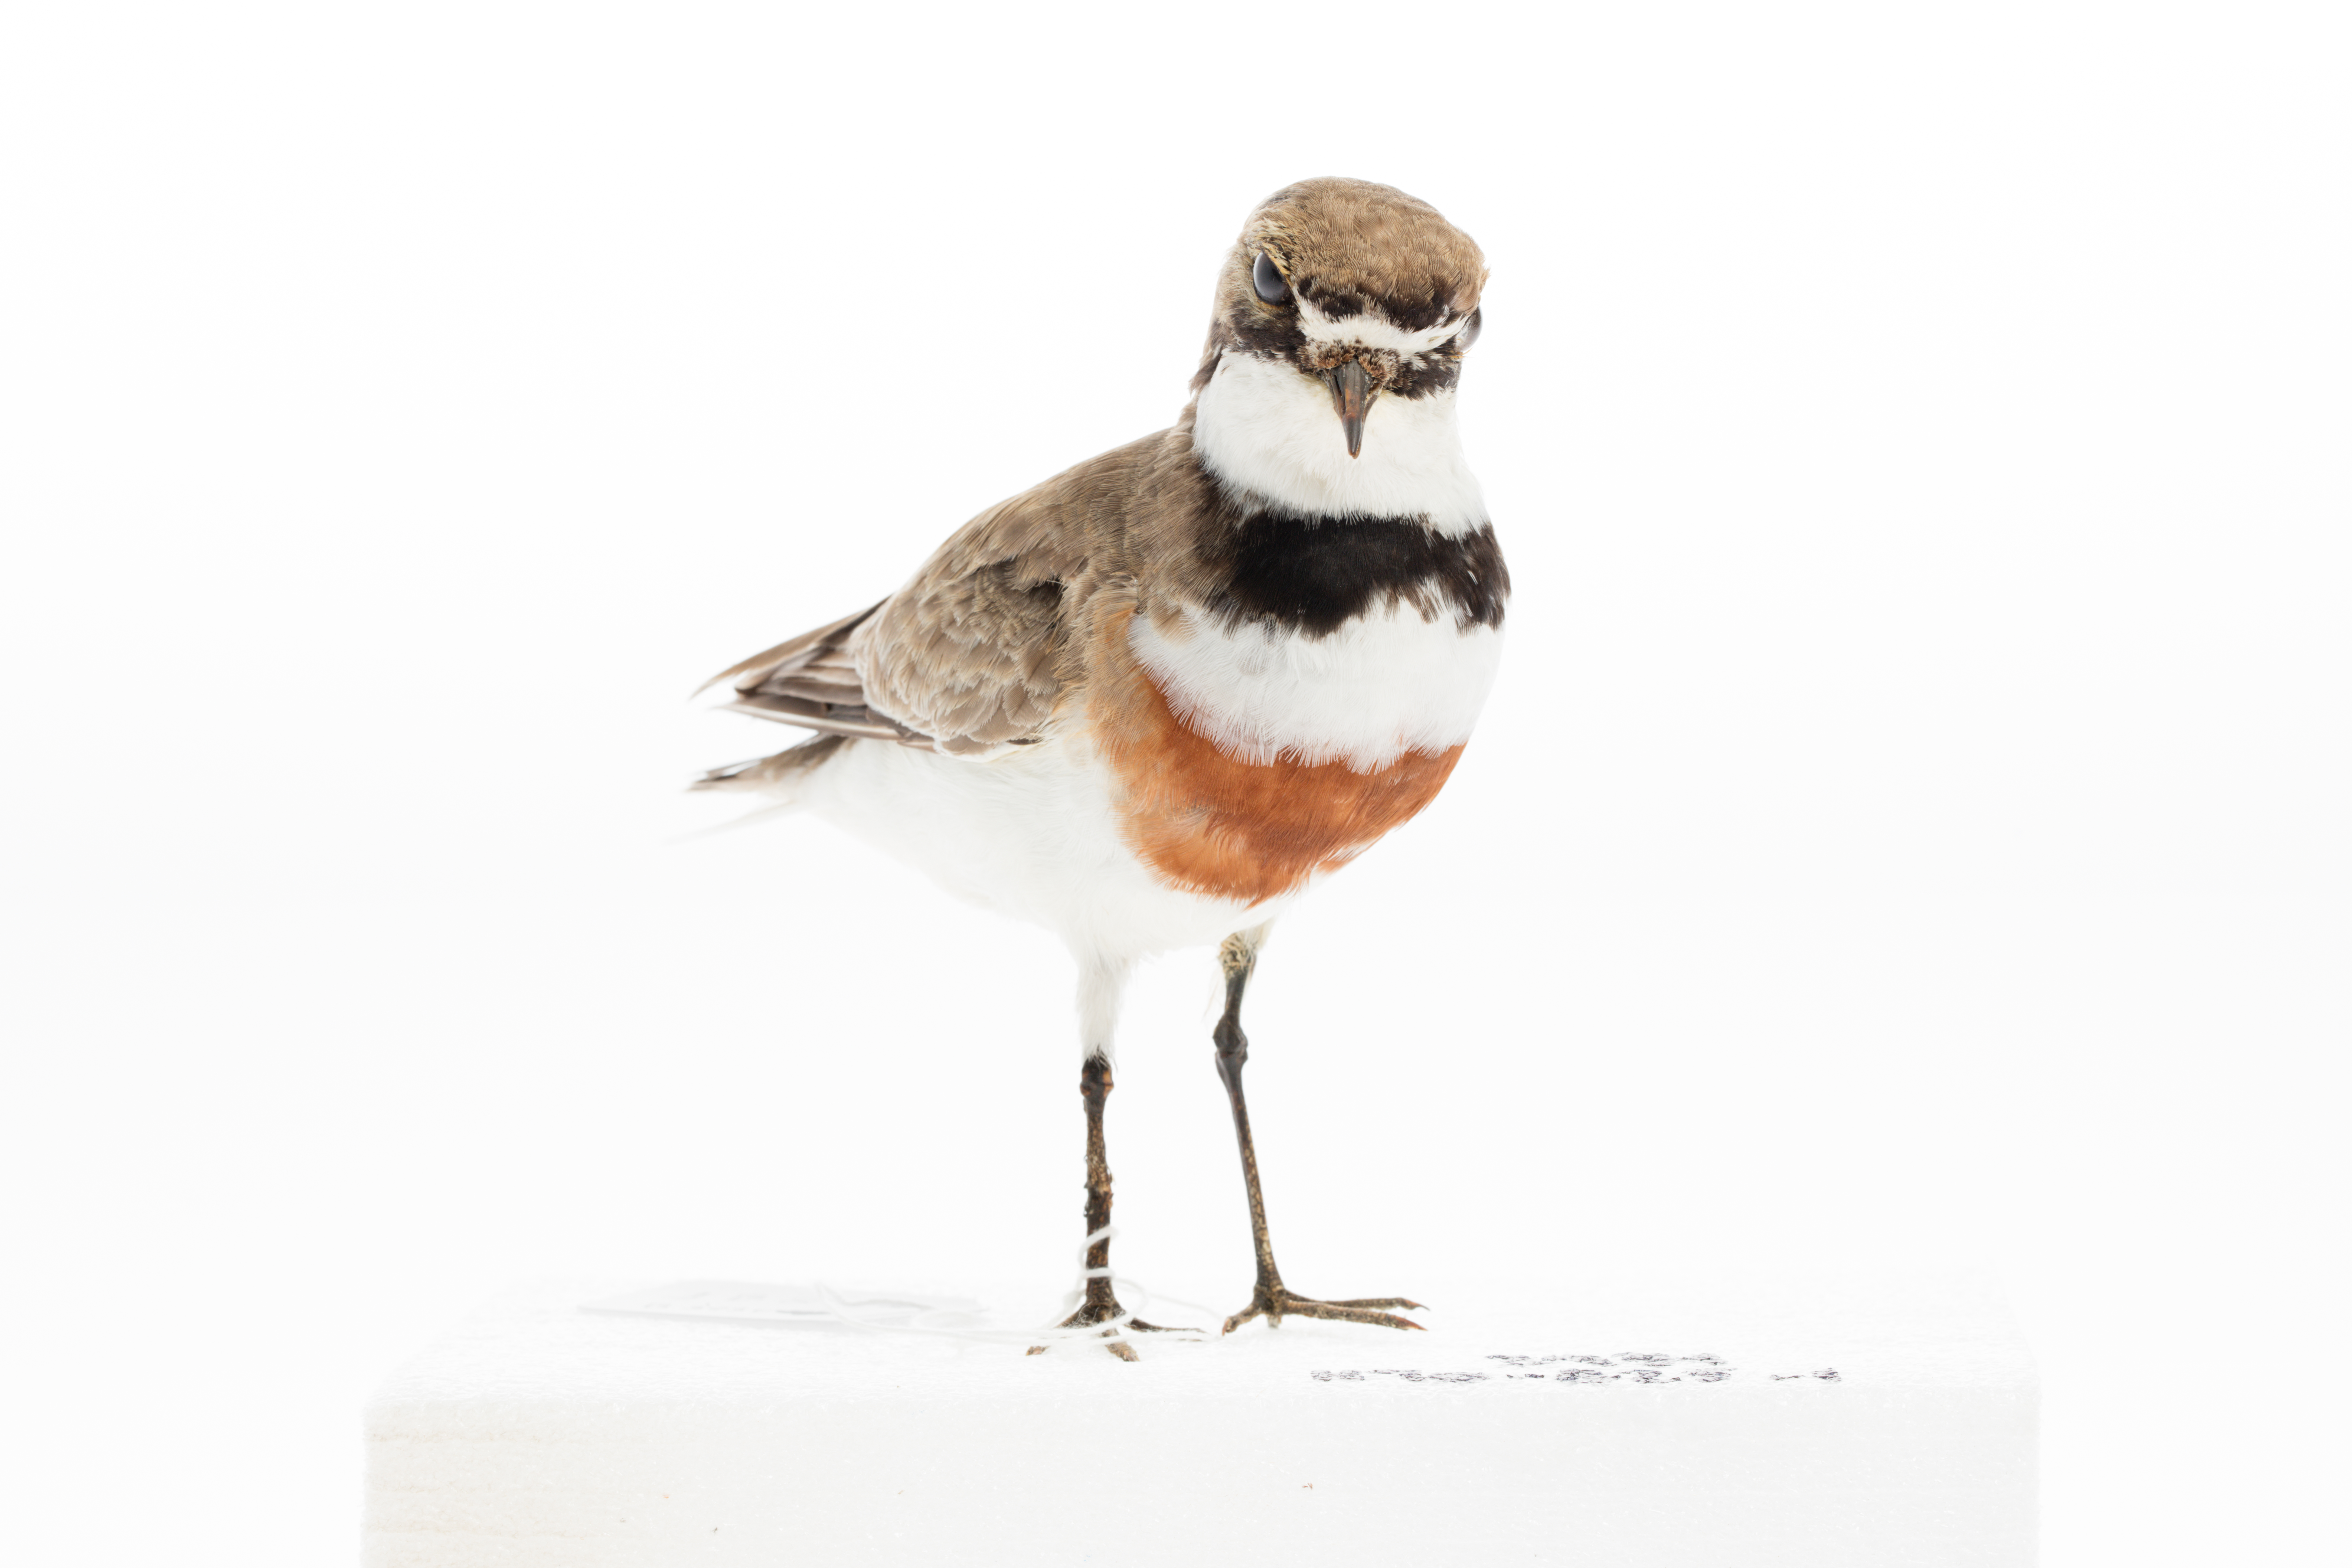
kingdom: Animalia
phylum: Chordata
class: Aves
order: Charadriiformes
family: Charadriidae
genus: Charadrius
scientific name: Charadrius bicinctus
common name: Double-banded plover
